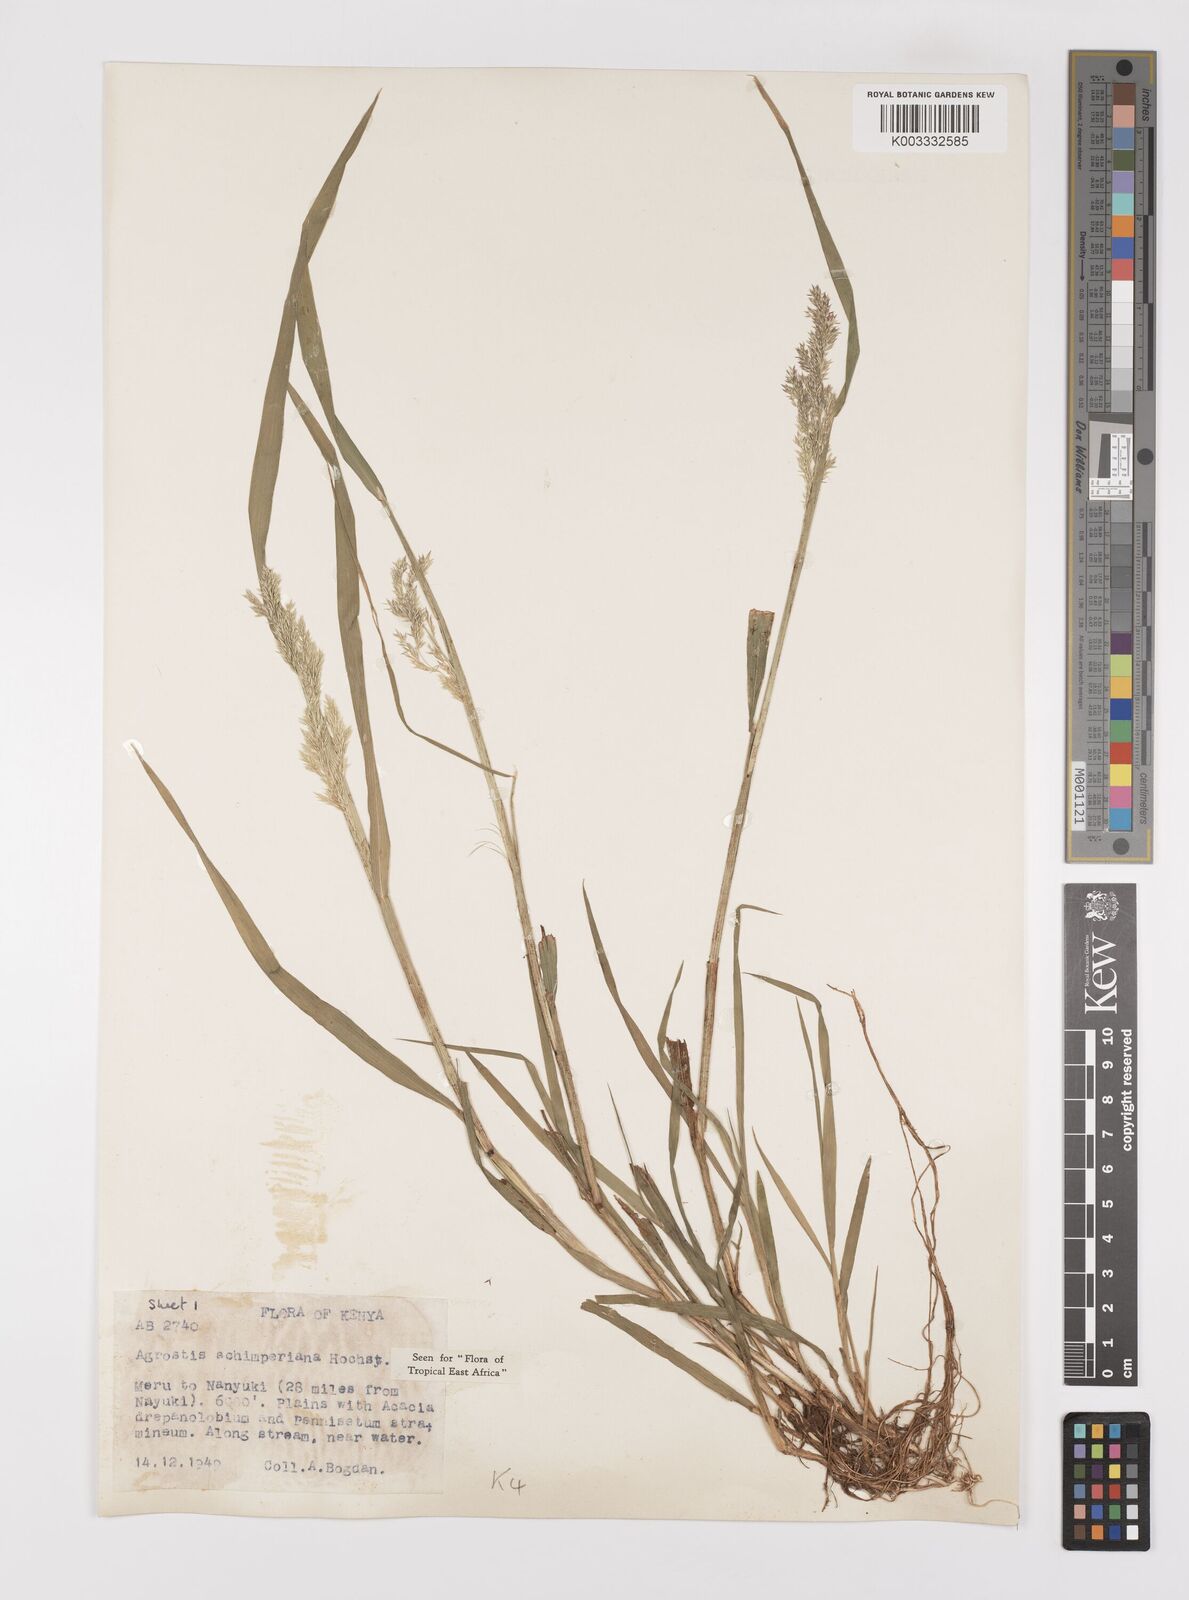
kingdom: Plantae
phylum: Tracheophyta
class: Liliopsida
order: Poales
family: Poaceae
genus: Polypogon
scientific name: Polypogon schimperianus
